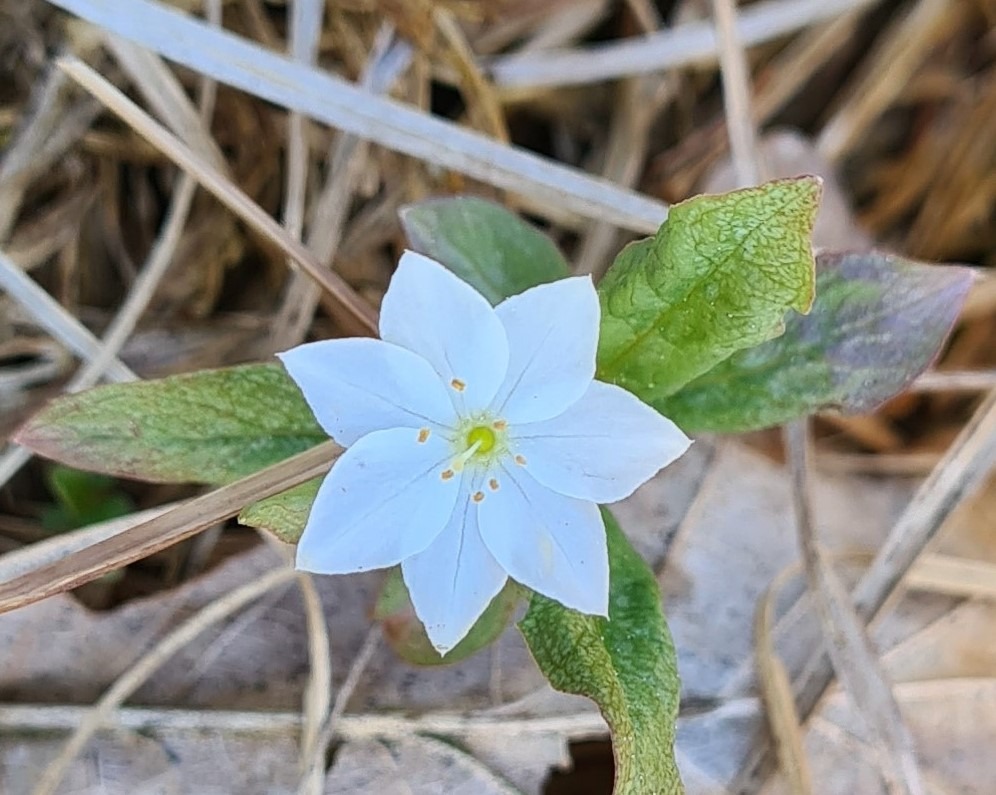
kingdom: Plantae
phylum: Tracheophyta
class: Magnoliopsida
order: Ericales
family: Primulaceae
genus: Lysimachia
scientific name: Lysimachia europaea
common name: Skovstjerne
